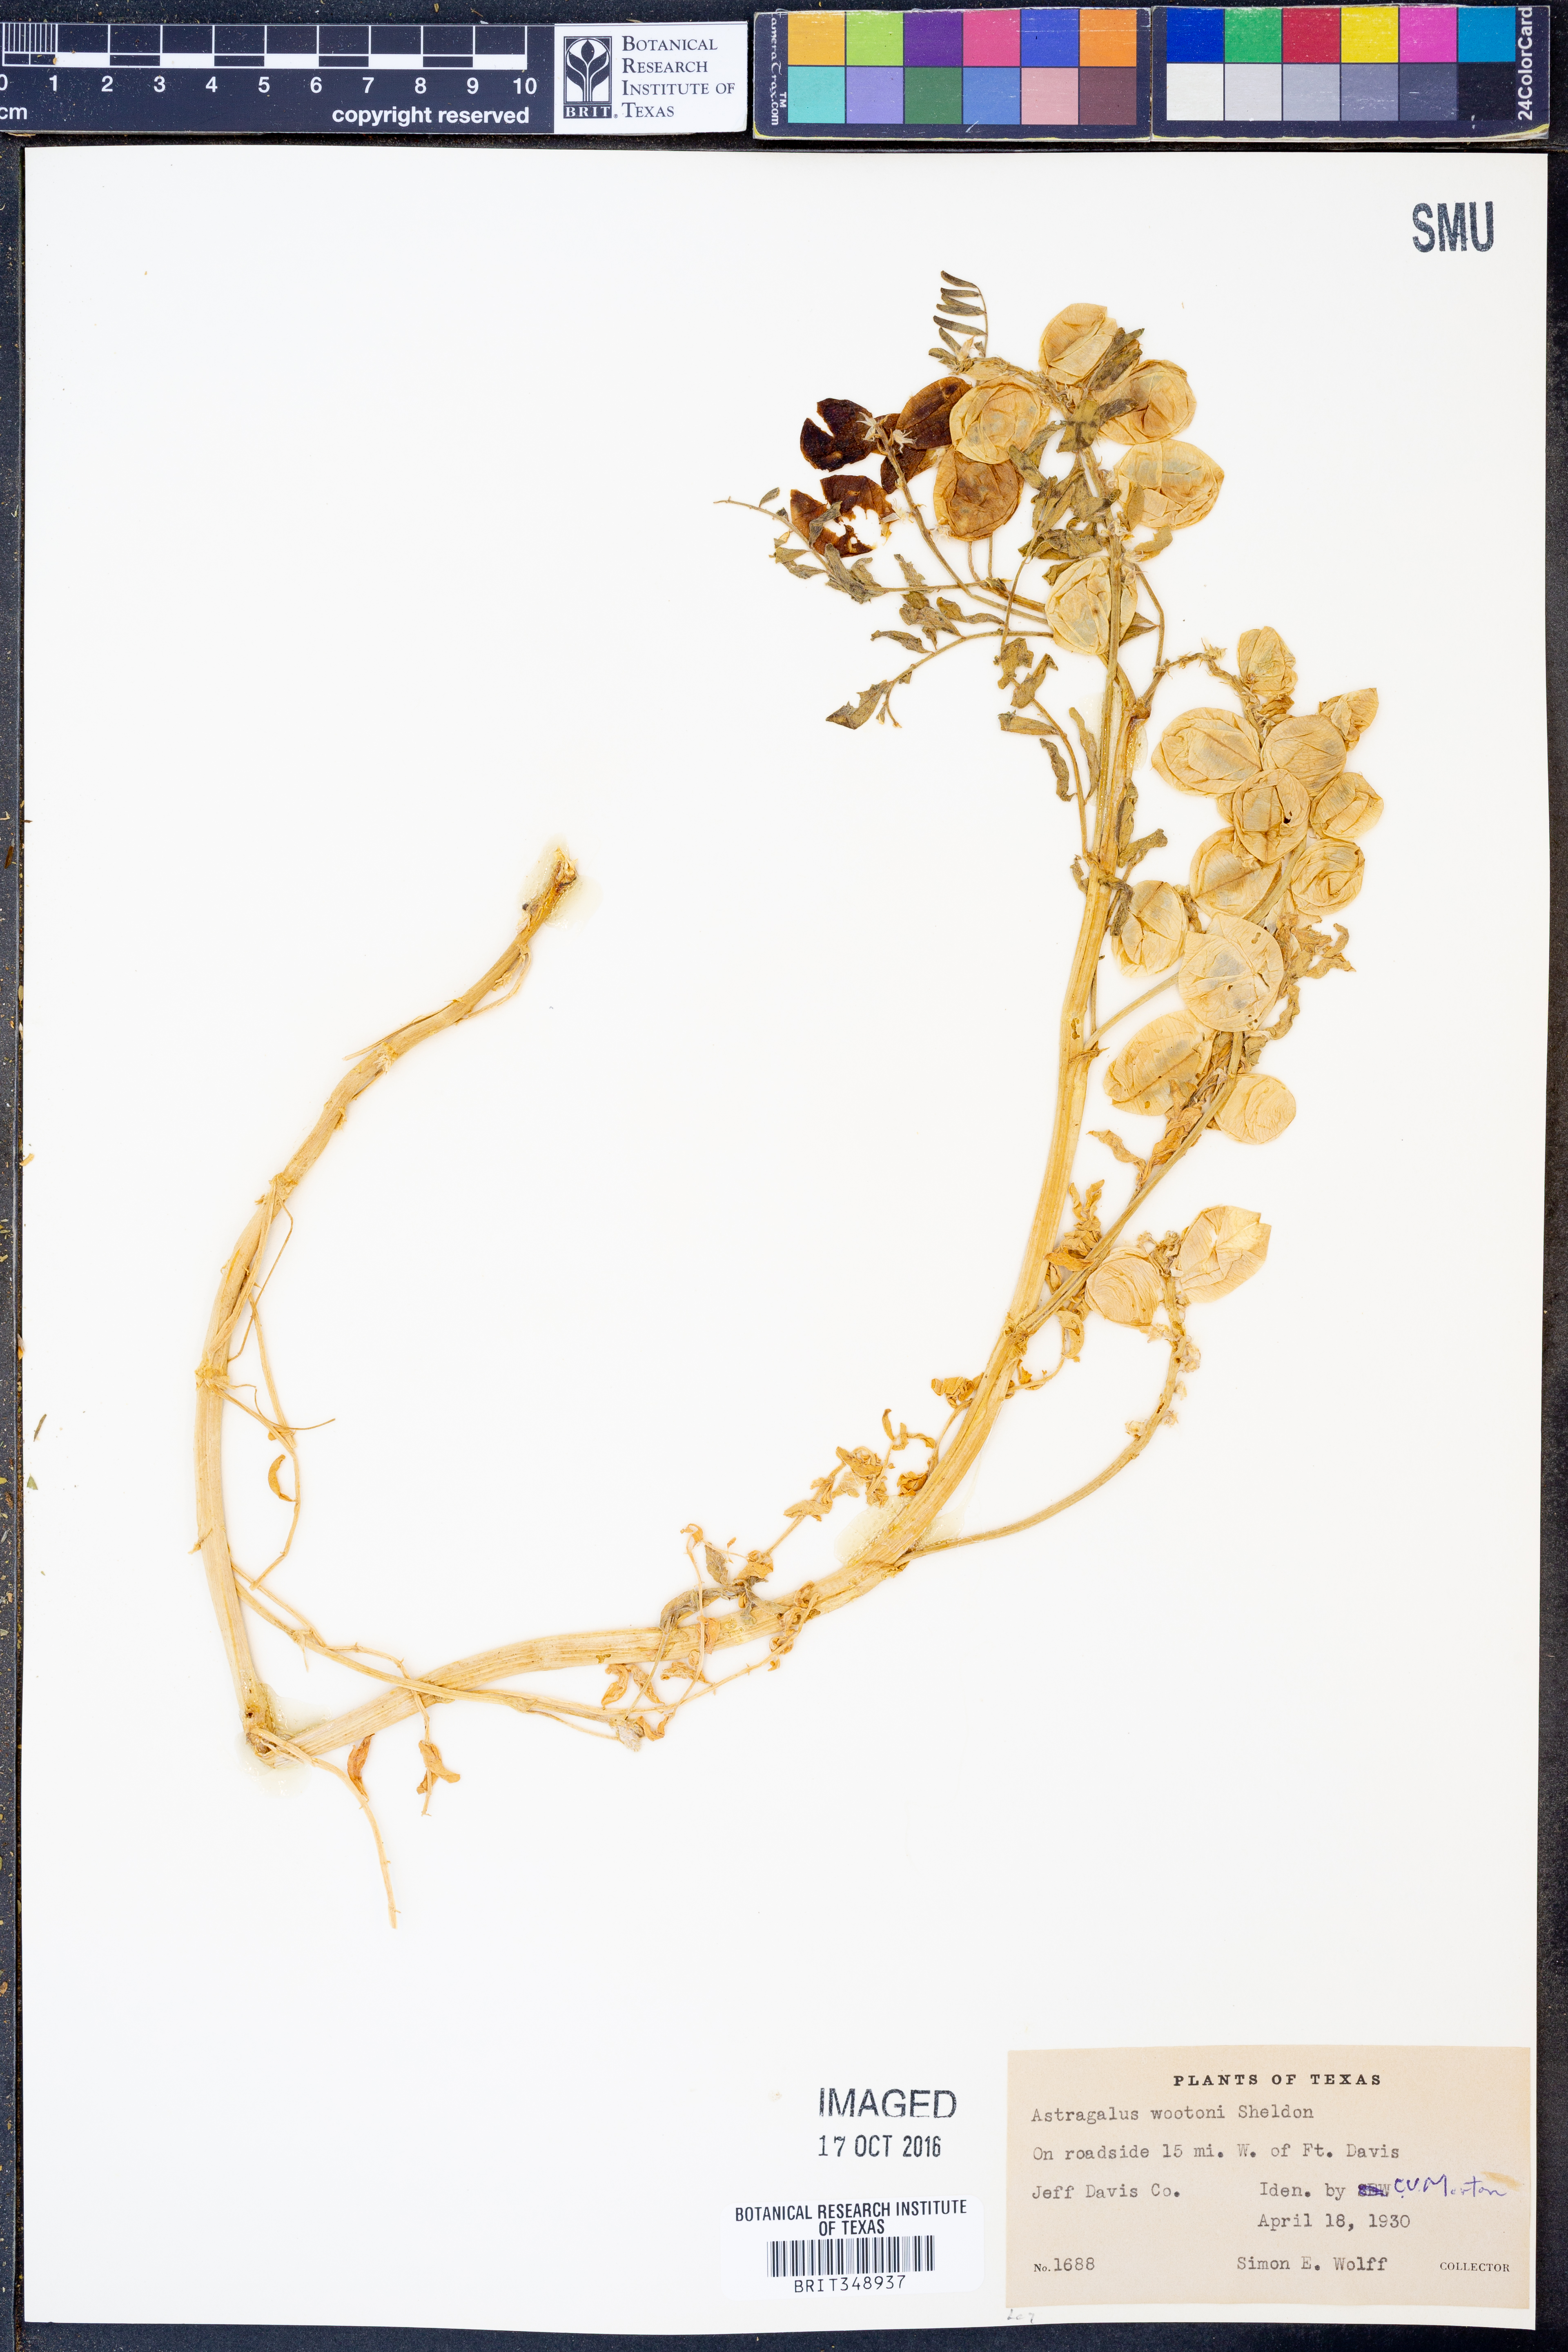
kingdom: Plantae
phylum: Tracheophyta
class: Magnoliopsida
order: Fabales
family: Fabaceae
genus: Astragalus
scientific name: Astragalus wootonii
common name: Wooton's milk-vetch
